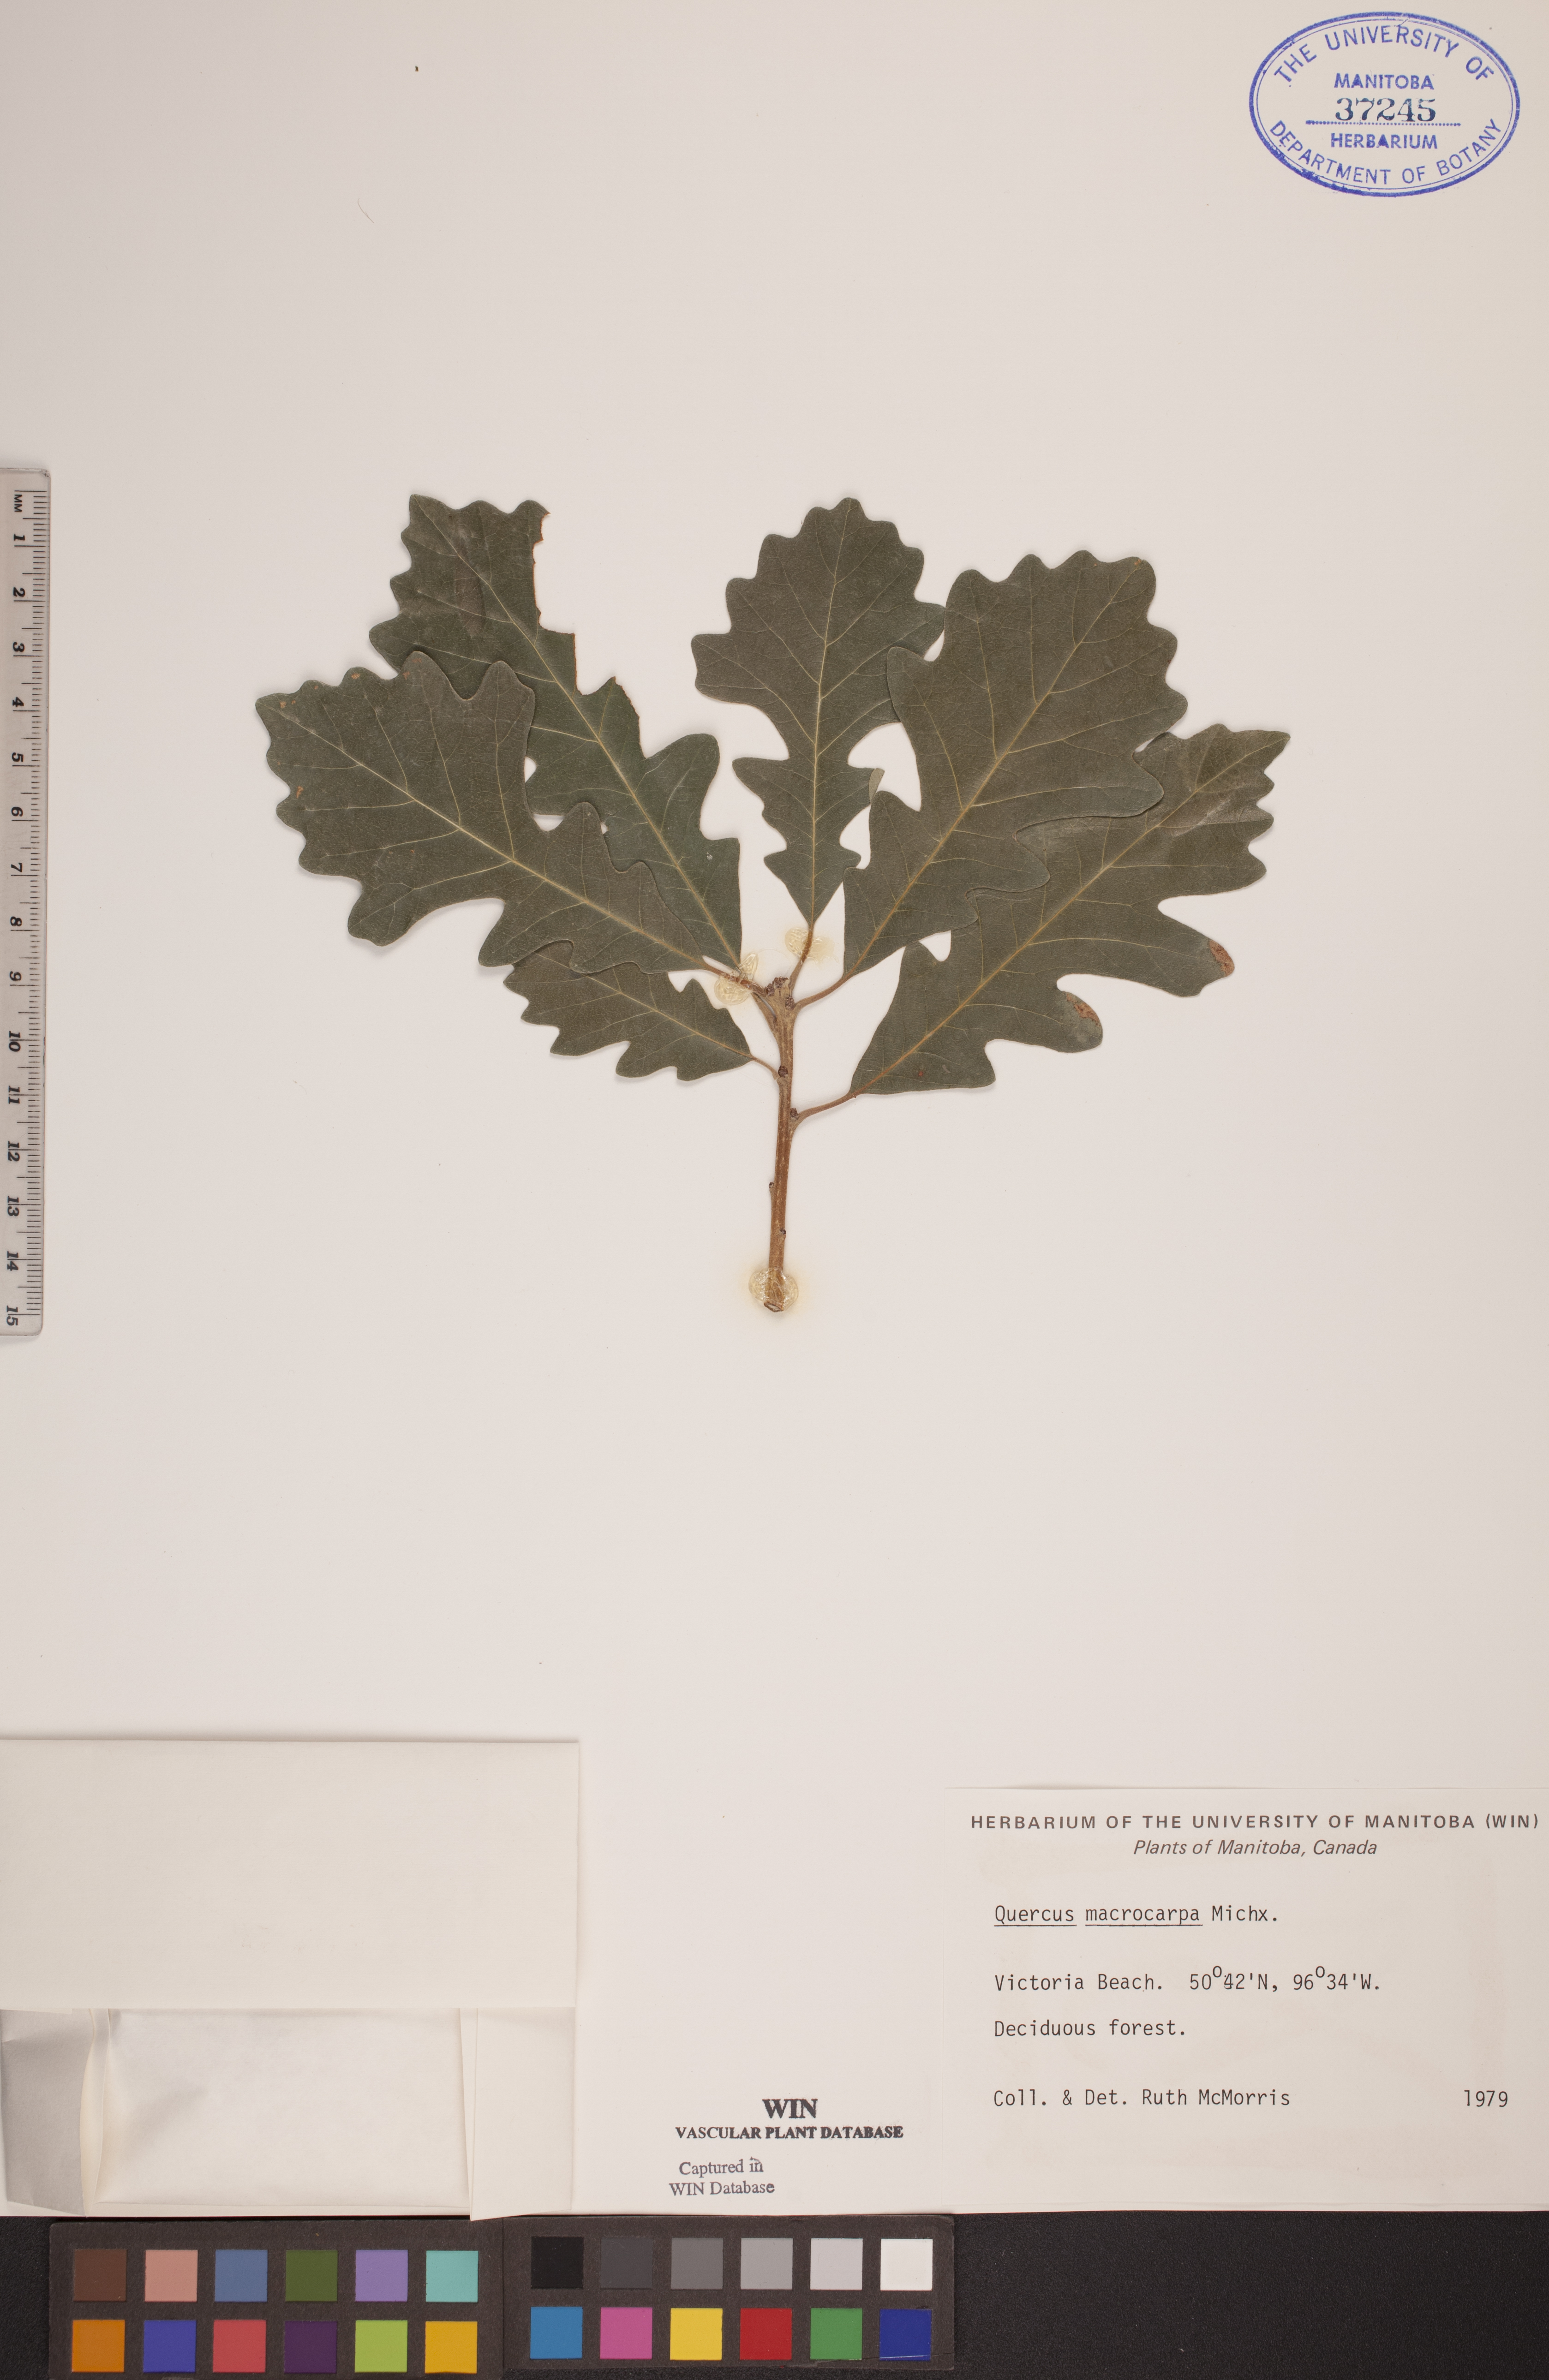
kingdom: Plantae
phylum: Tracheophyta
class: Magnoliopsida
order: Fagales
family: Fagaceae
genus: Quercus
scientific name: Quercus macrocarpa
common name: Bur oak
